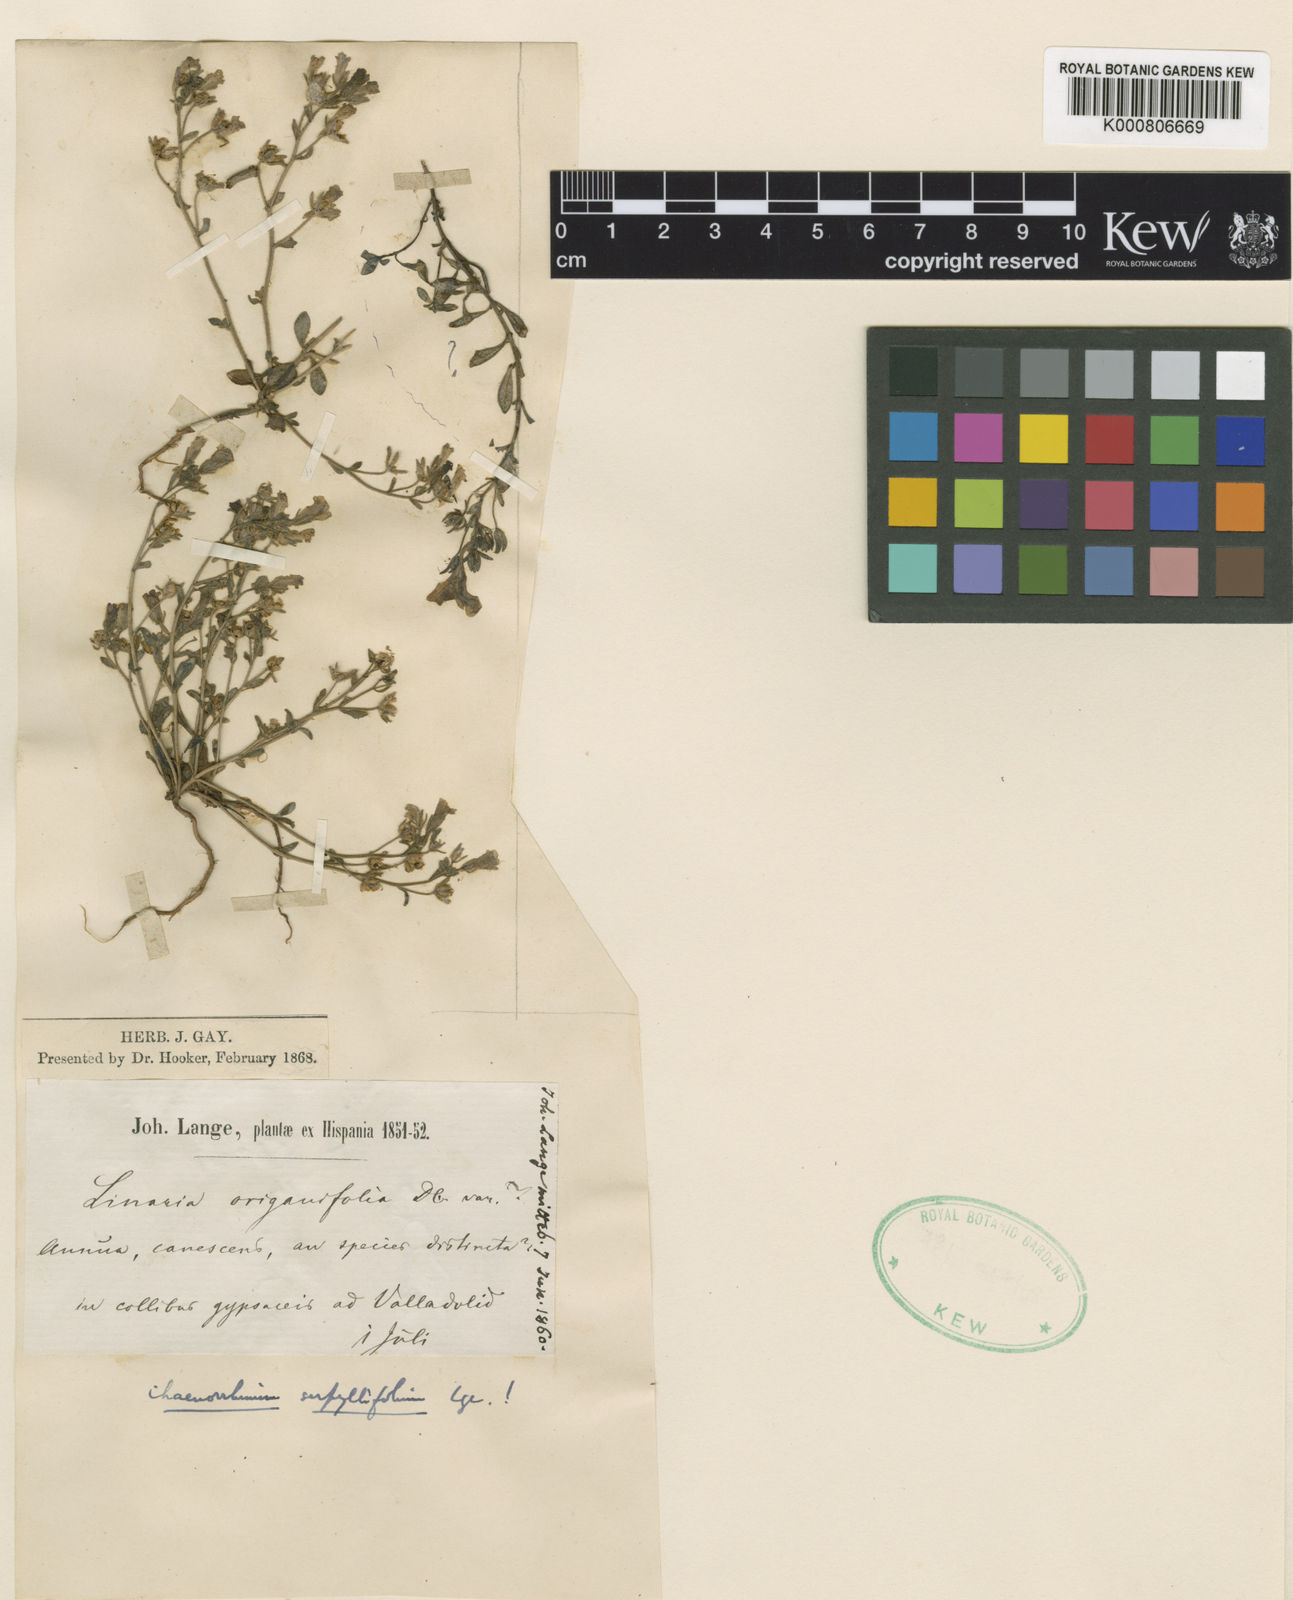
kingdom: Plantae
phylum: Tracheophyta
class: Magnoliopsida
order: Lamiales
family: Plantaginaceae
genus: Chaenorhinum
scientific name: Chaenorhinum serpyllifolium
